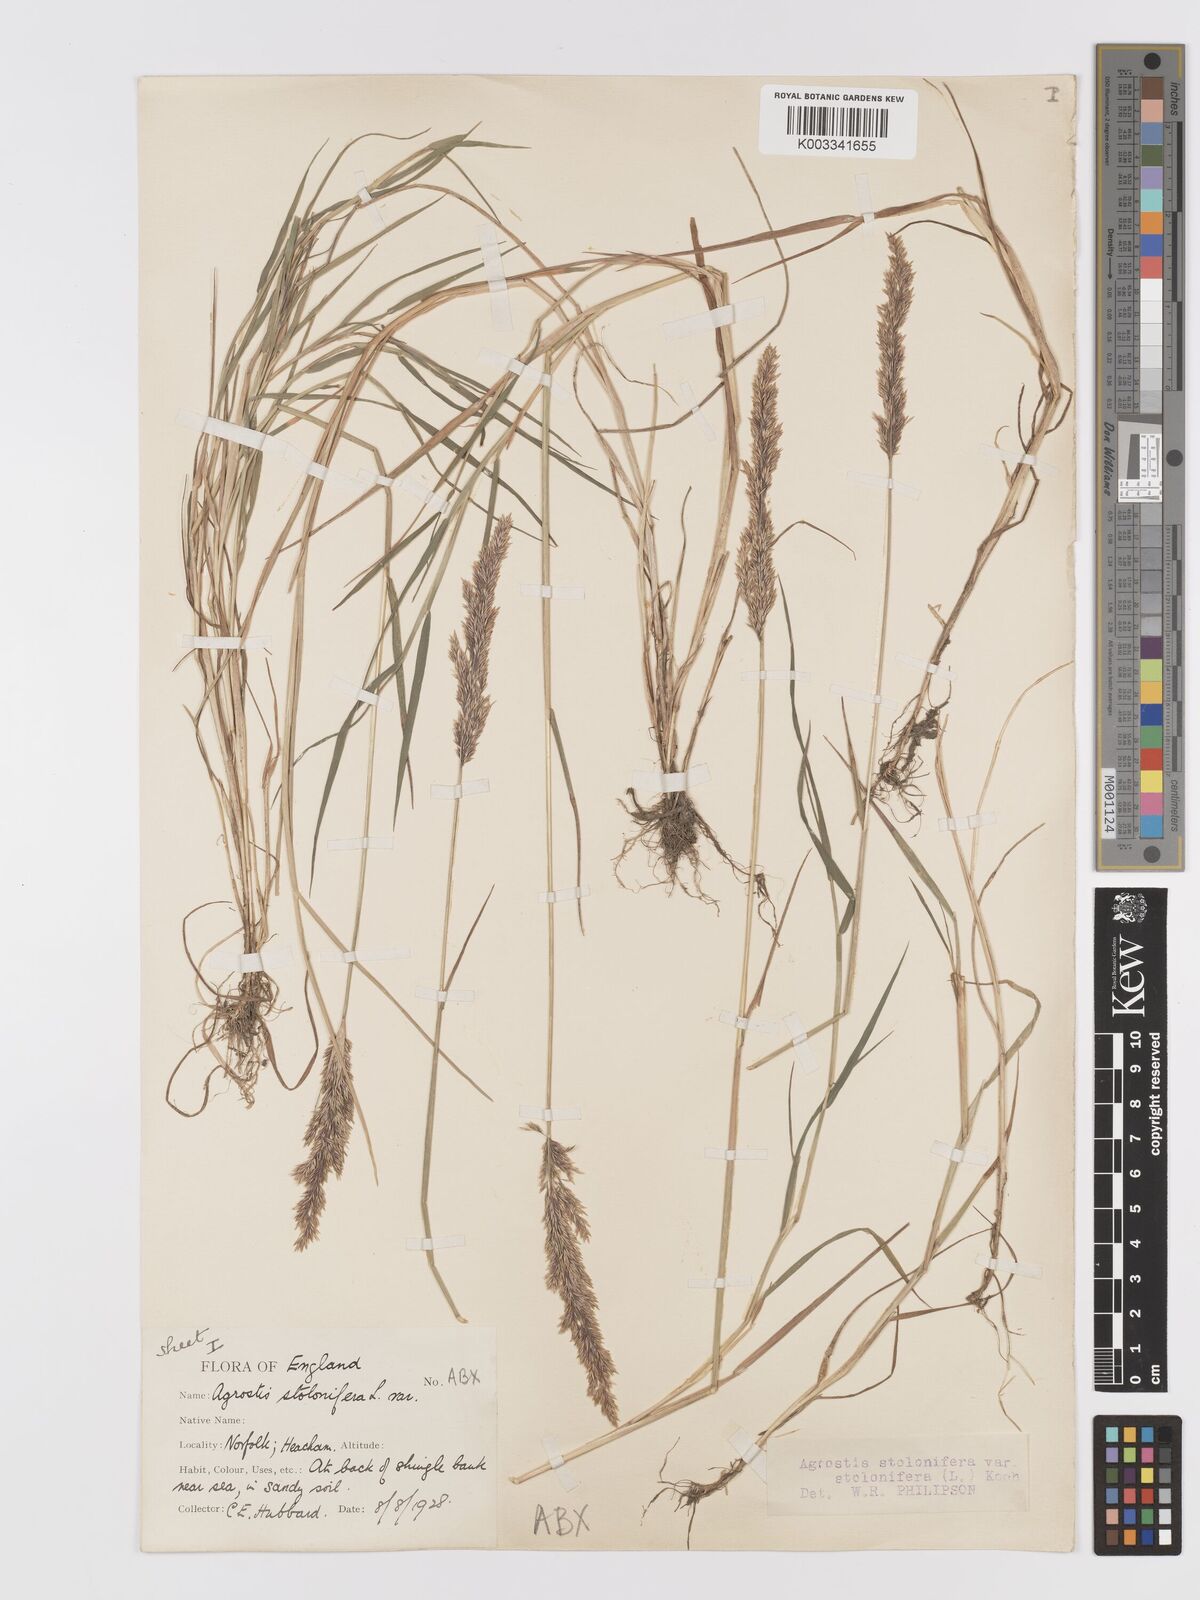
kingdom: Plantae
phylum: Tracheophyta
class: Liliopsida
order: Poales
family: Poaceae
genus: Agrostis
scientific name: Agrostis stolonifera
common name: Creeping bentgrass
